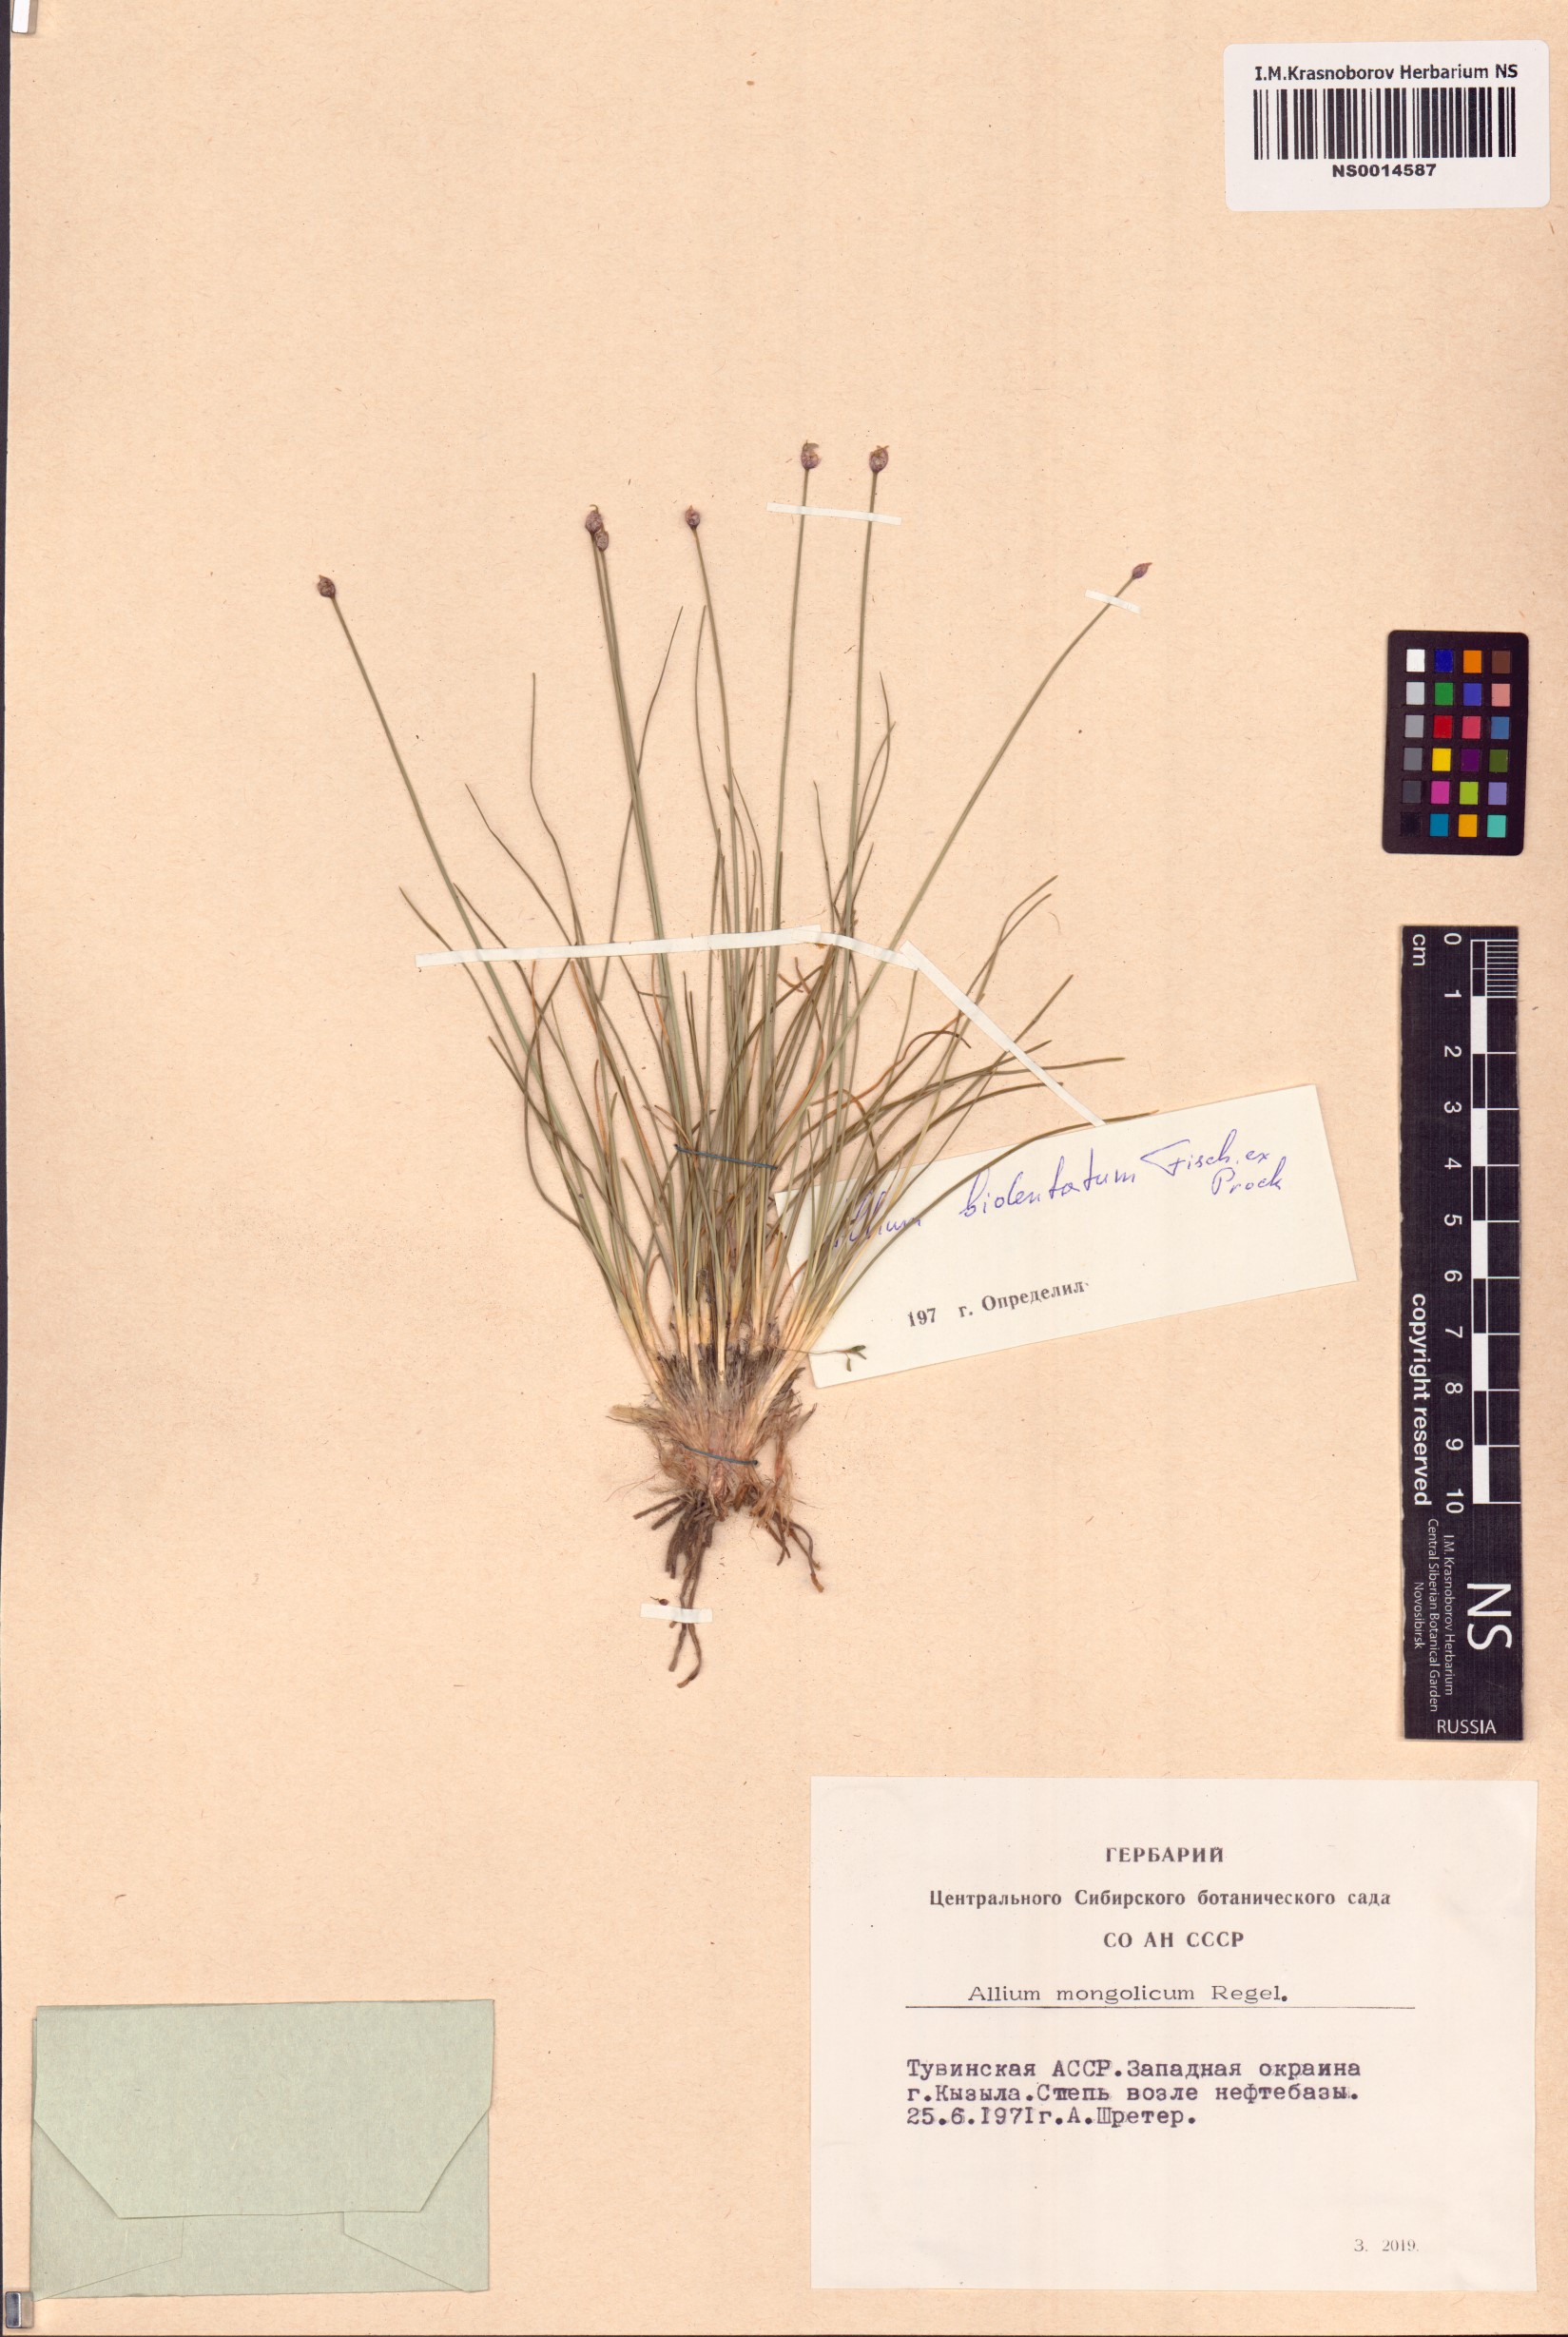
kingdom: Plantae
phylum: Tracheophyta
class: Liliopsida
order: Asparagales
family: Amaryllidaceae
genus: Allium
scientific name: Allium bidentatum
